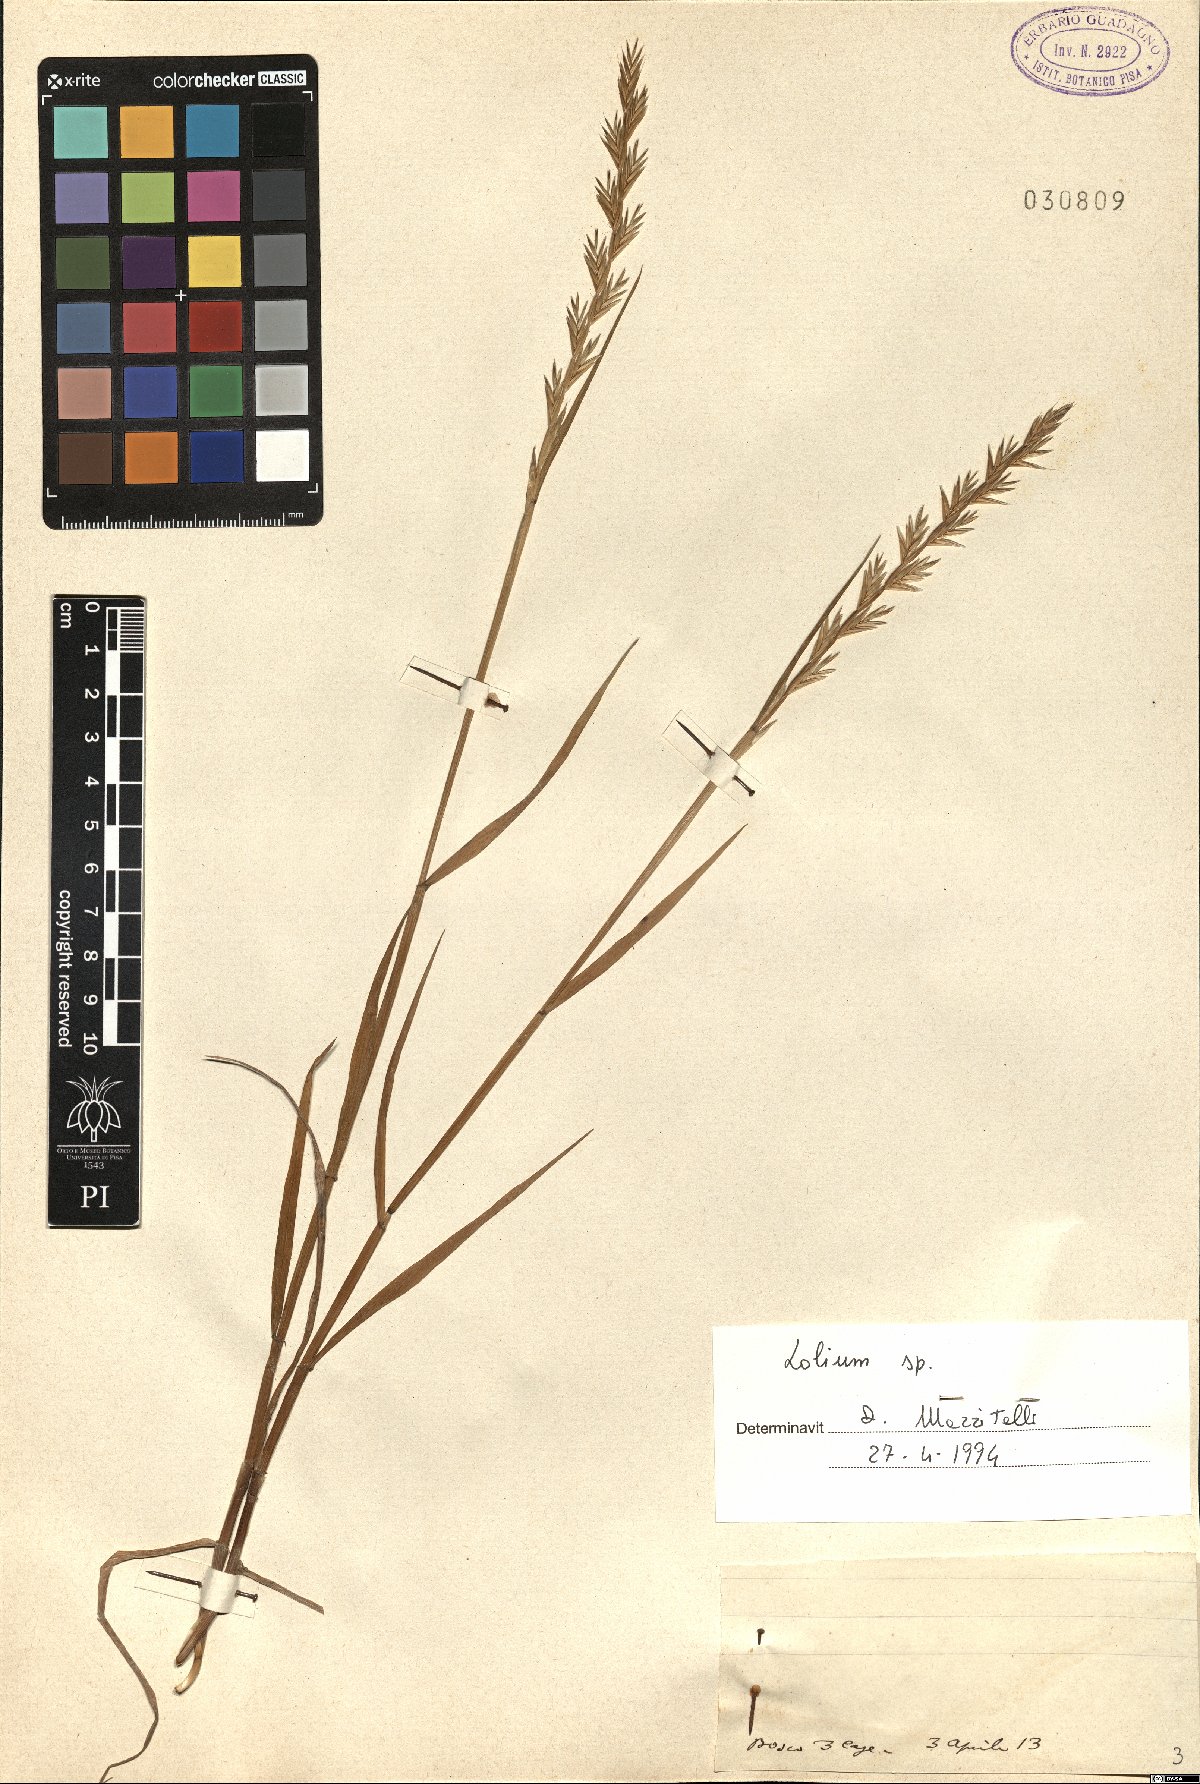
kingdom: Plantae
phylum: Tracheophyta
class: Liliopsida
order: Poales
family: Poaceae
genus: Lolium
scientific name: Lolium
